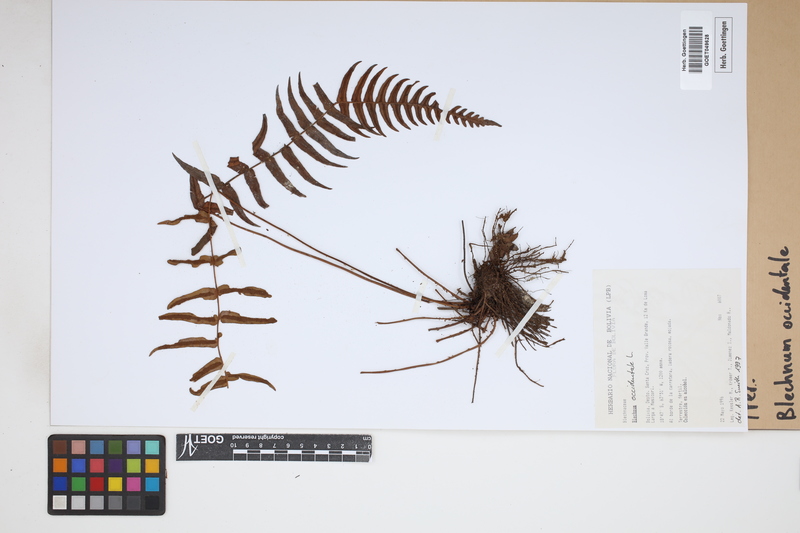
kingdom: Plantae
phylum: Tracheophyta
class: Polypodiopsida
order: Polypodiales
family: Blechnaceae
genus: Blechnum
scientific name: Blechnum occidentale
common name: Hammock fern
